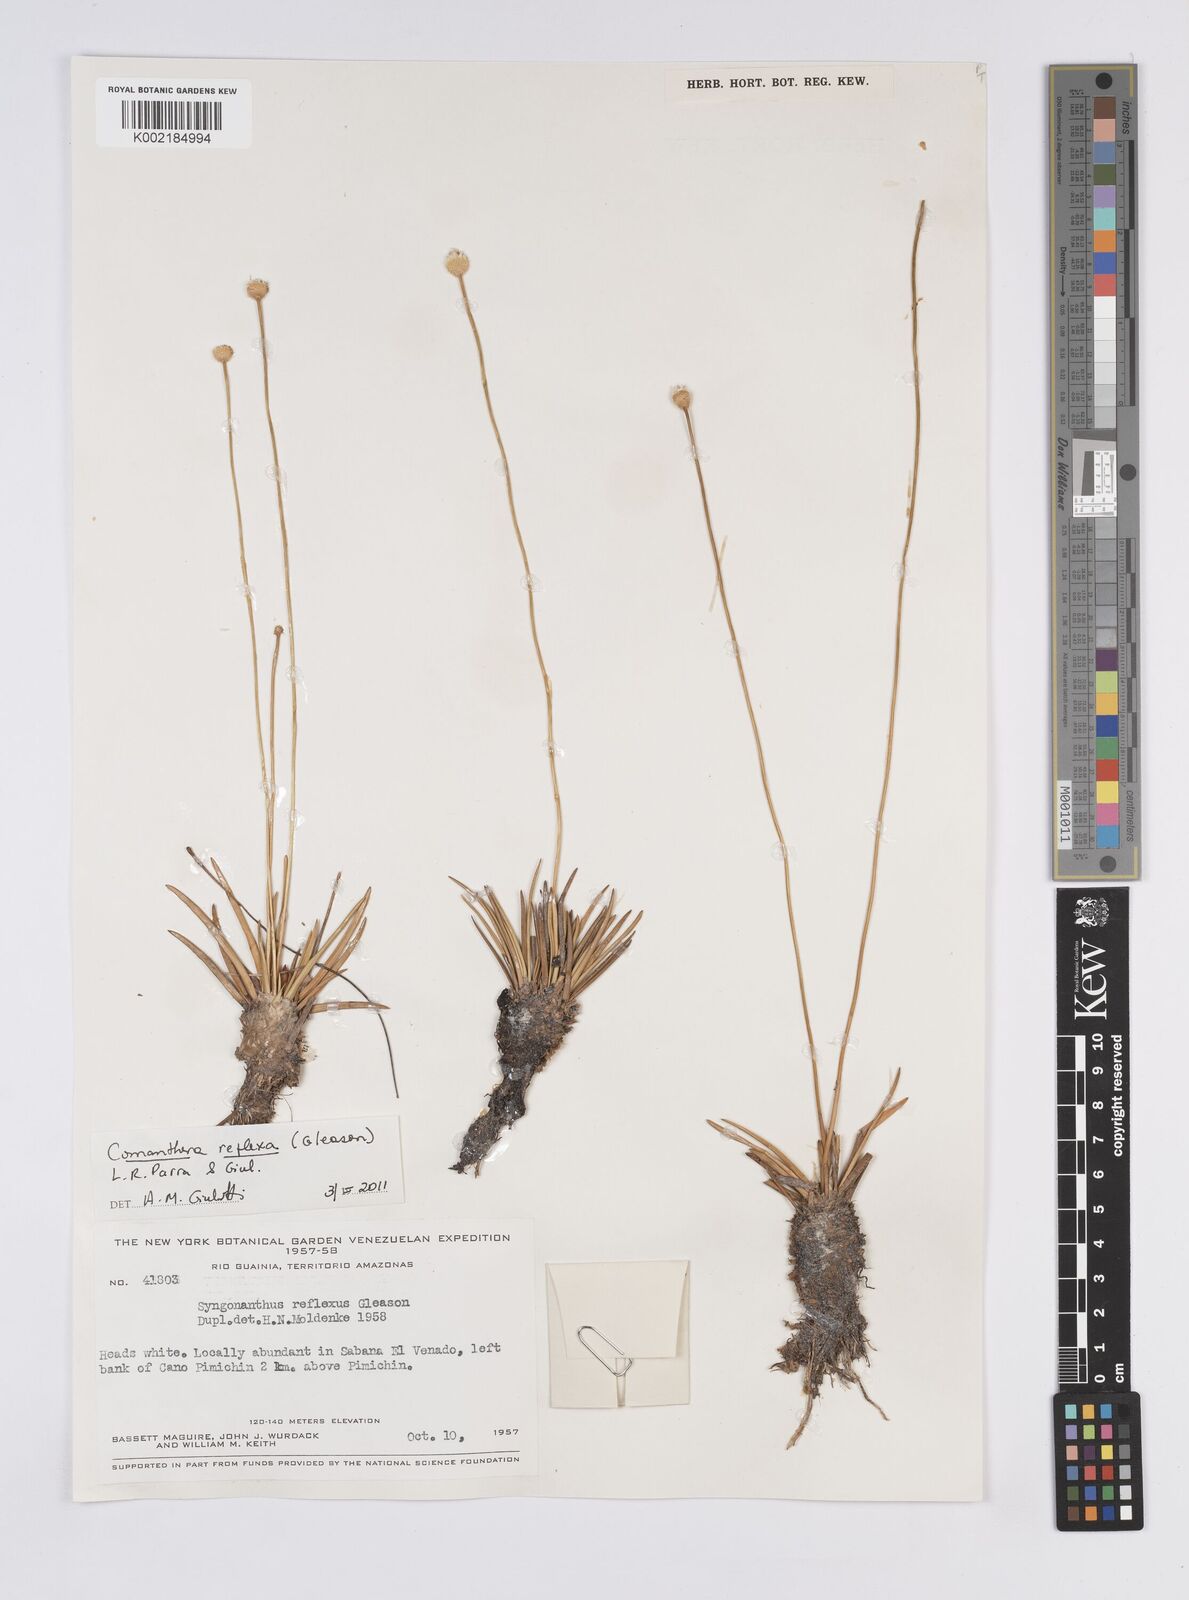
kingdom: Plantae
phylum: Tracheophyta
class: Liliopsida
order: Poales
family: Eriocaulaceae
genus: Comanthera
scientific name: Comanthera reflexa
